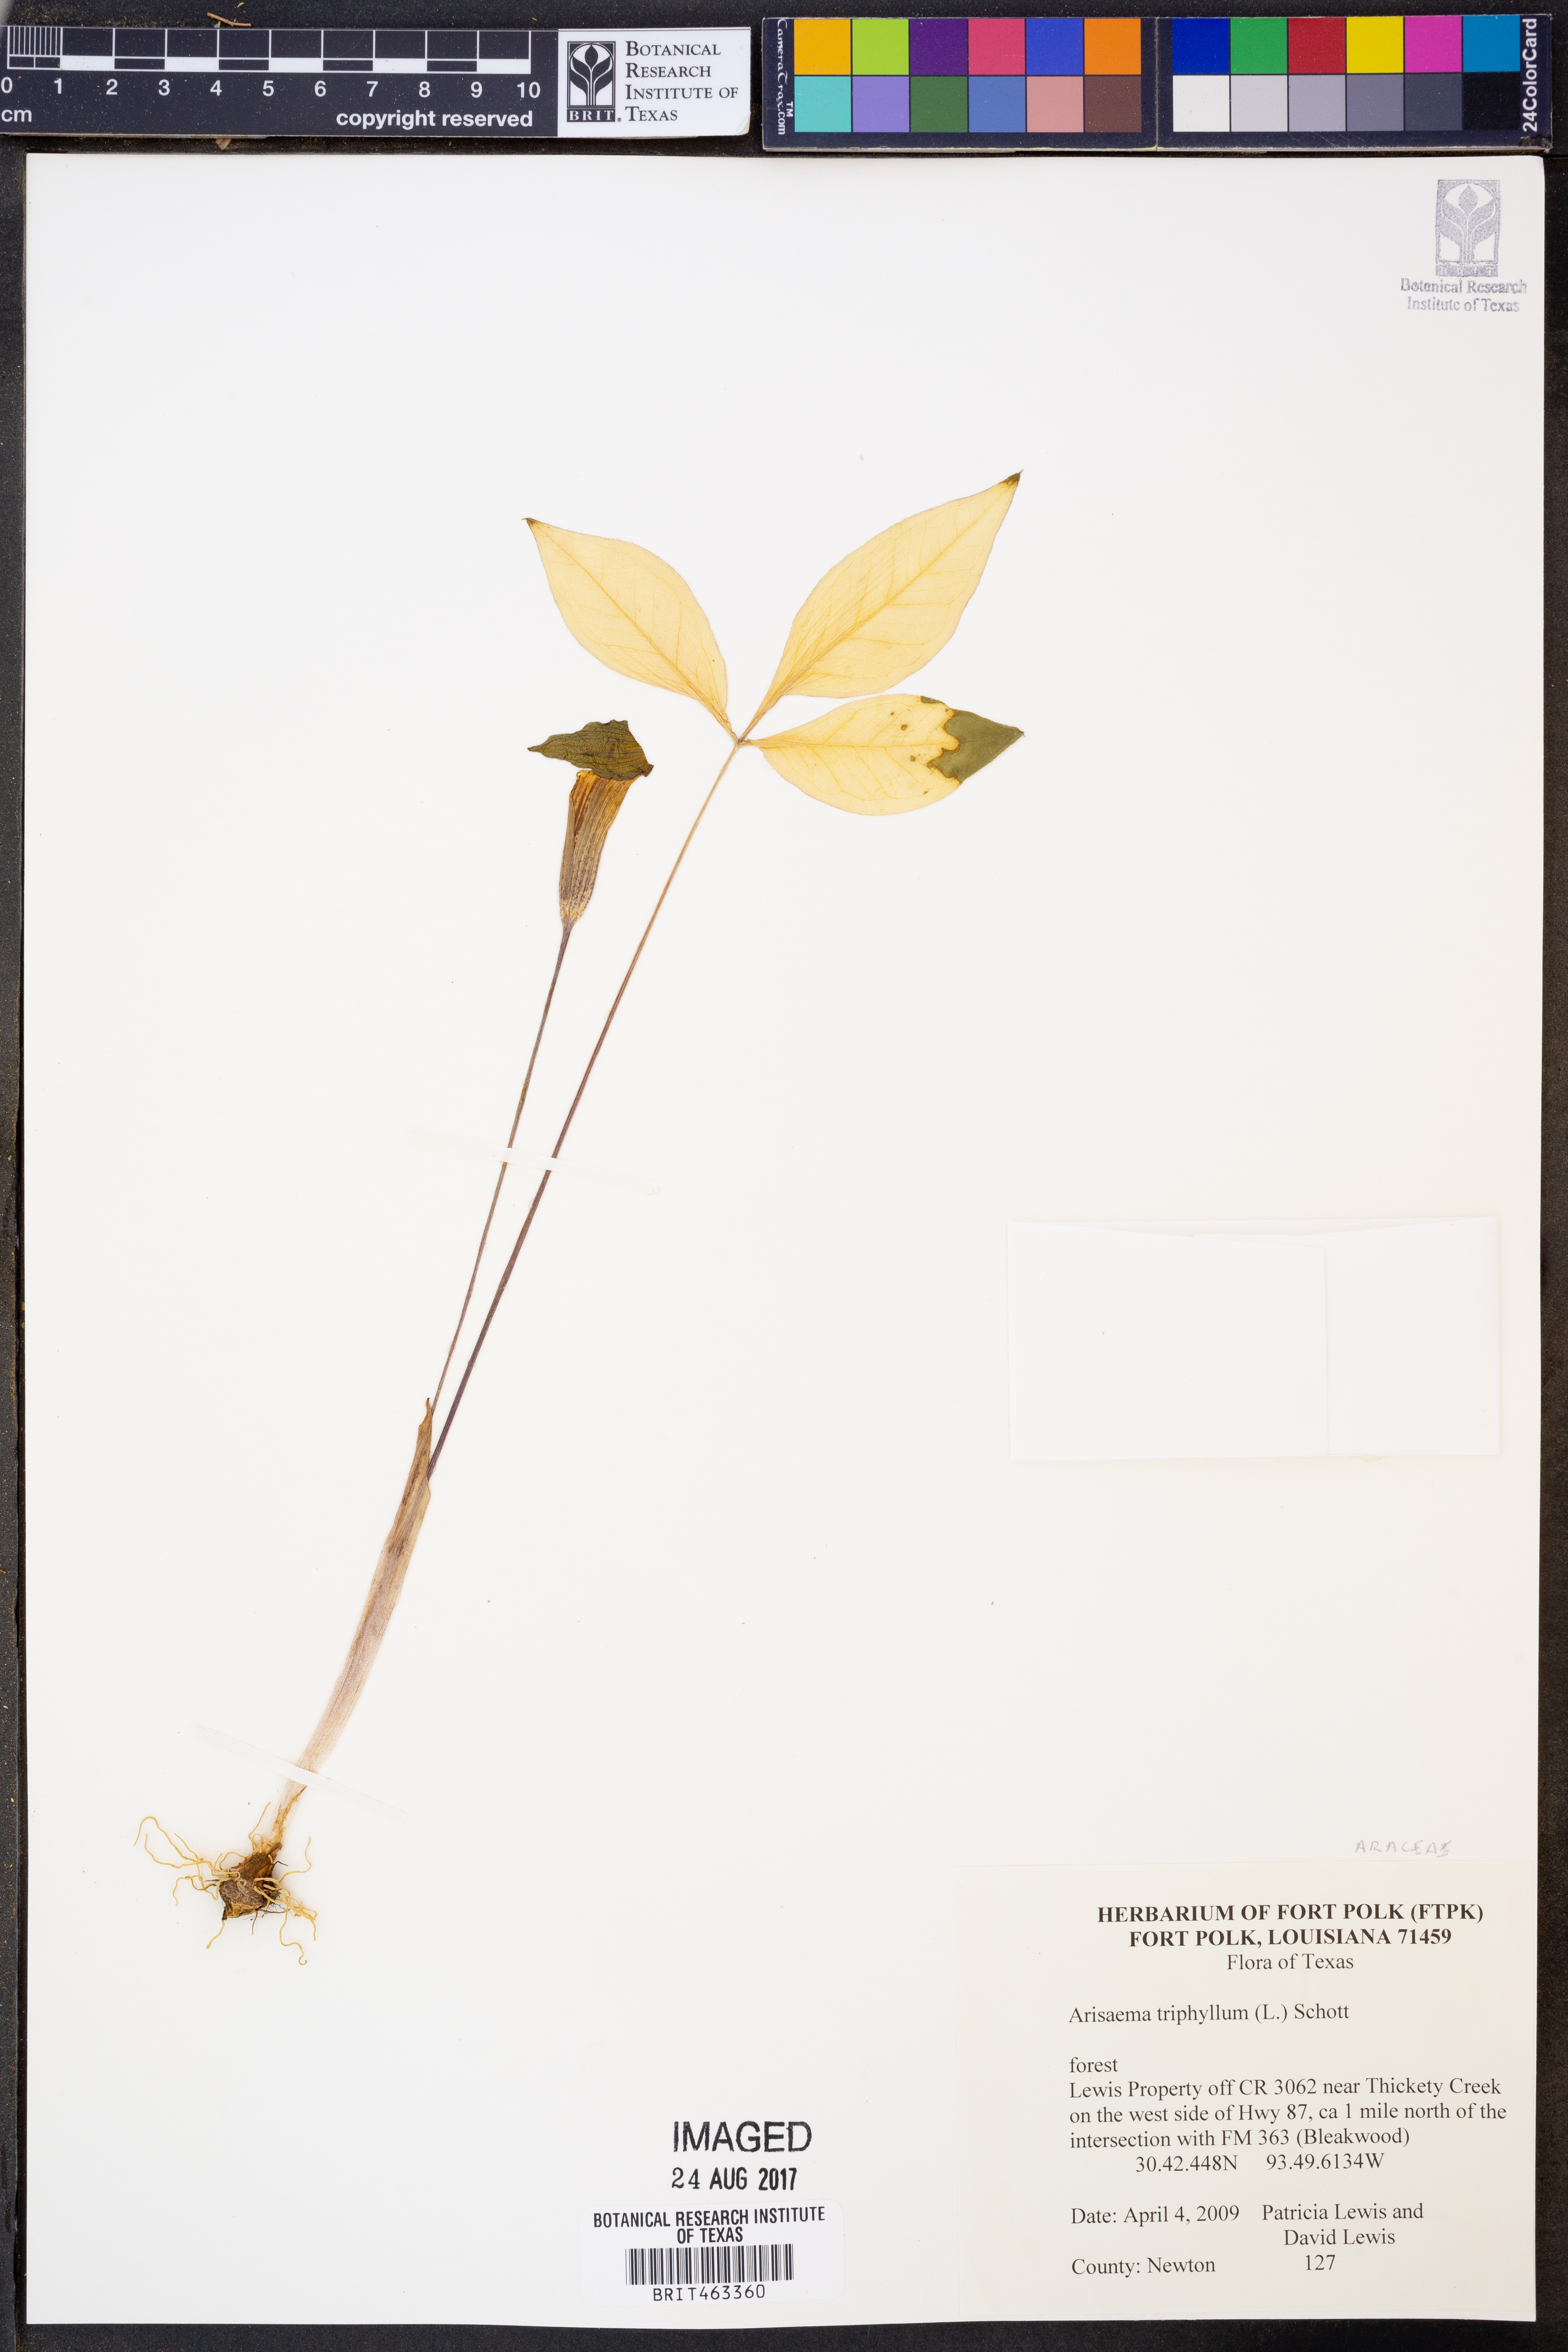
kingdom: Plantae
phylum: Tracheophyta
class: Liliopsida
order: Alismatales
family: Araceae
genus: Arisaema
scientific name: Arisaema triphyllum
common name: Jack-in-the-pulpit
